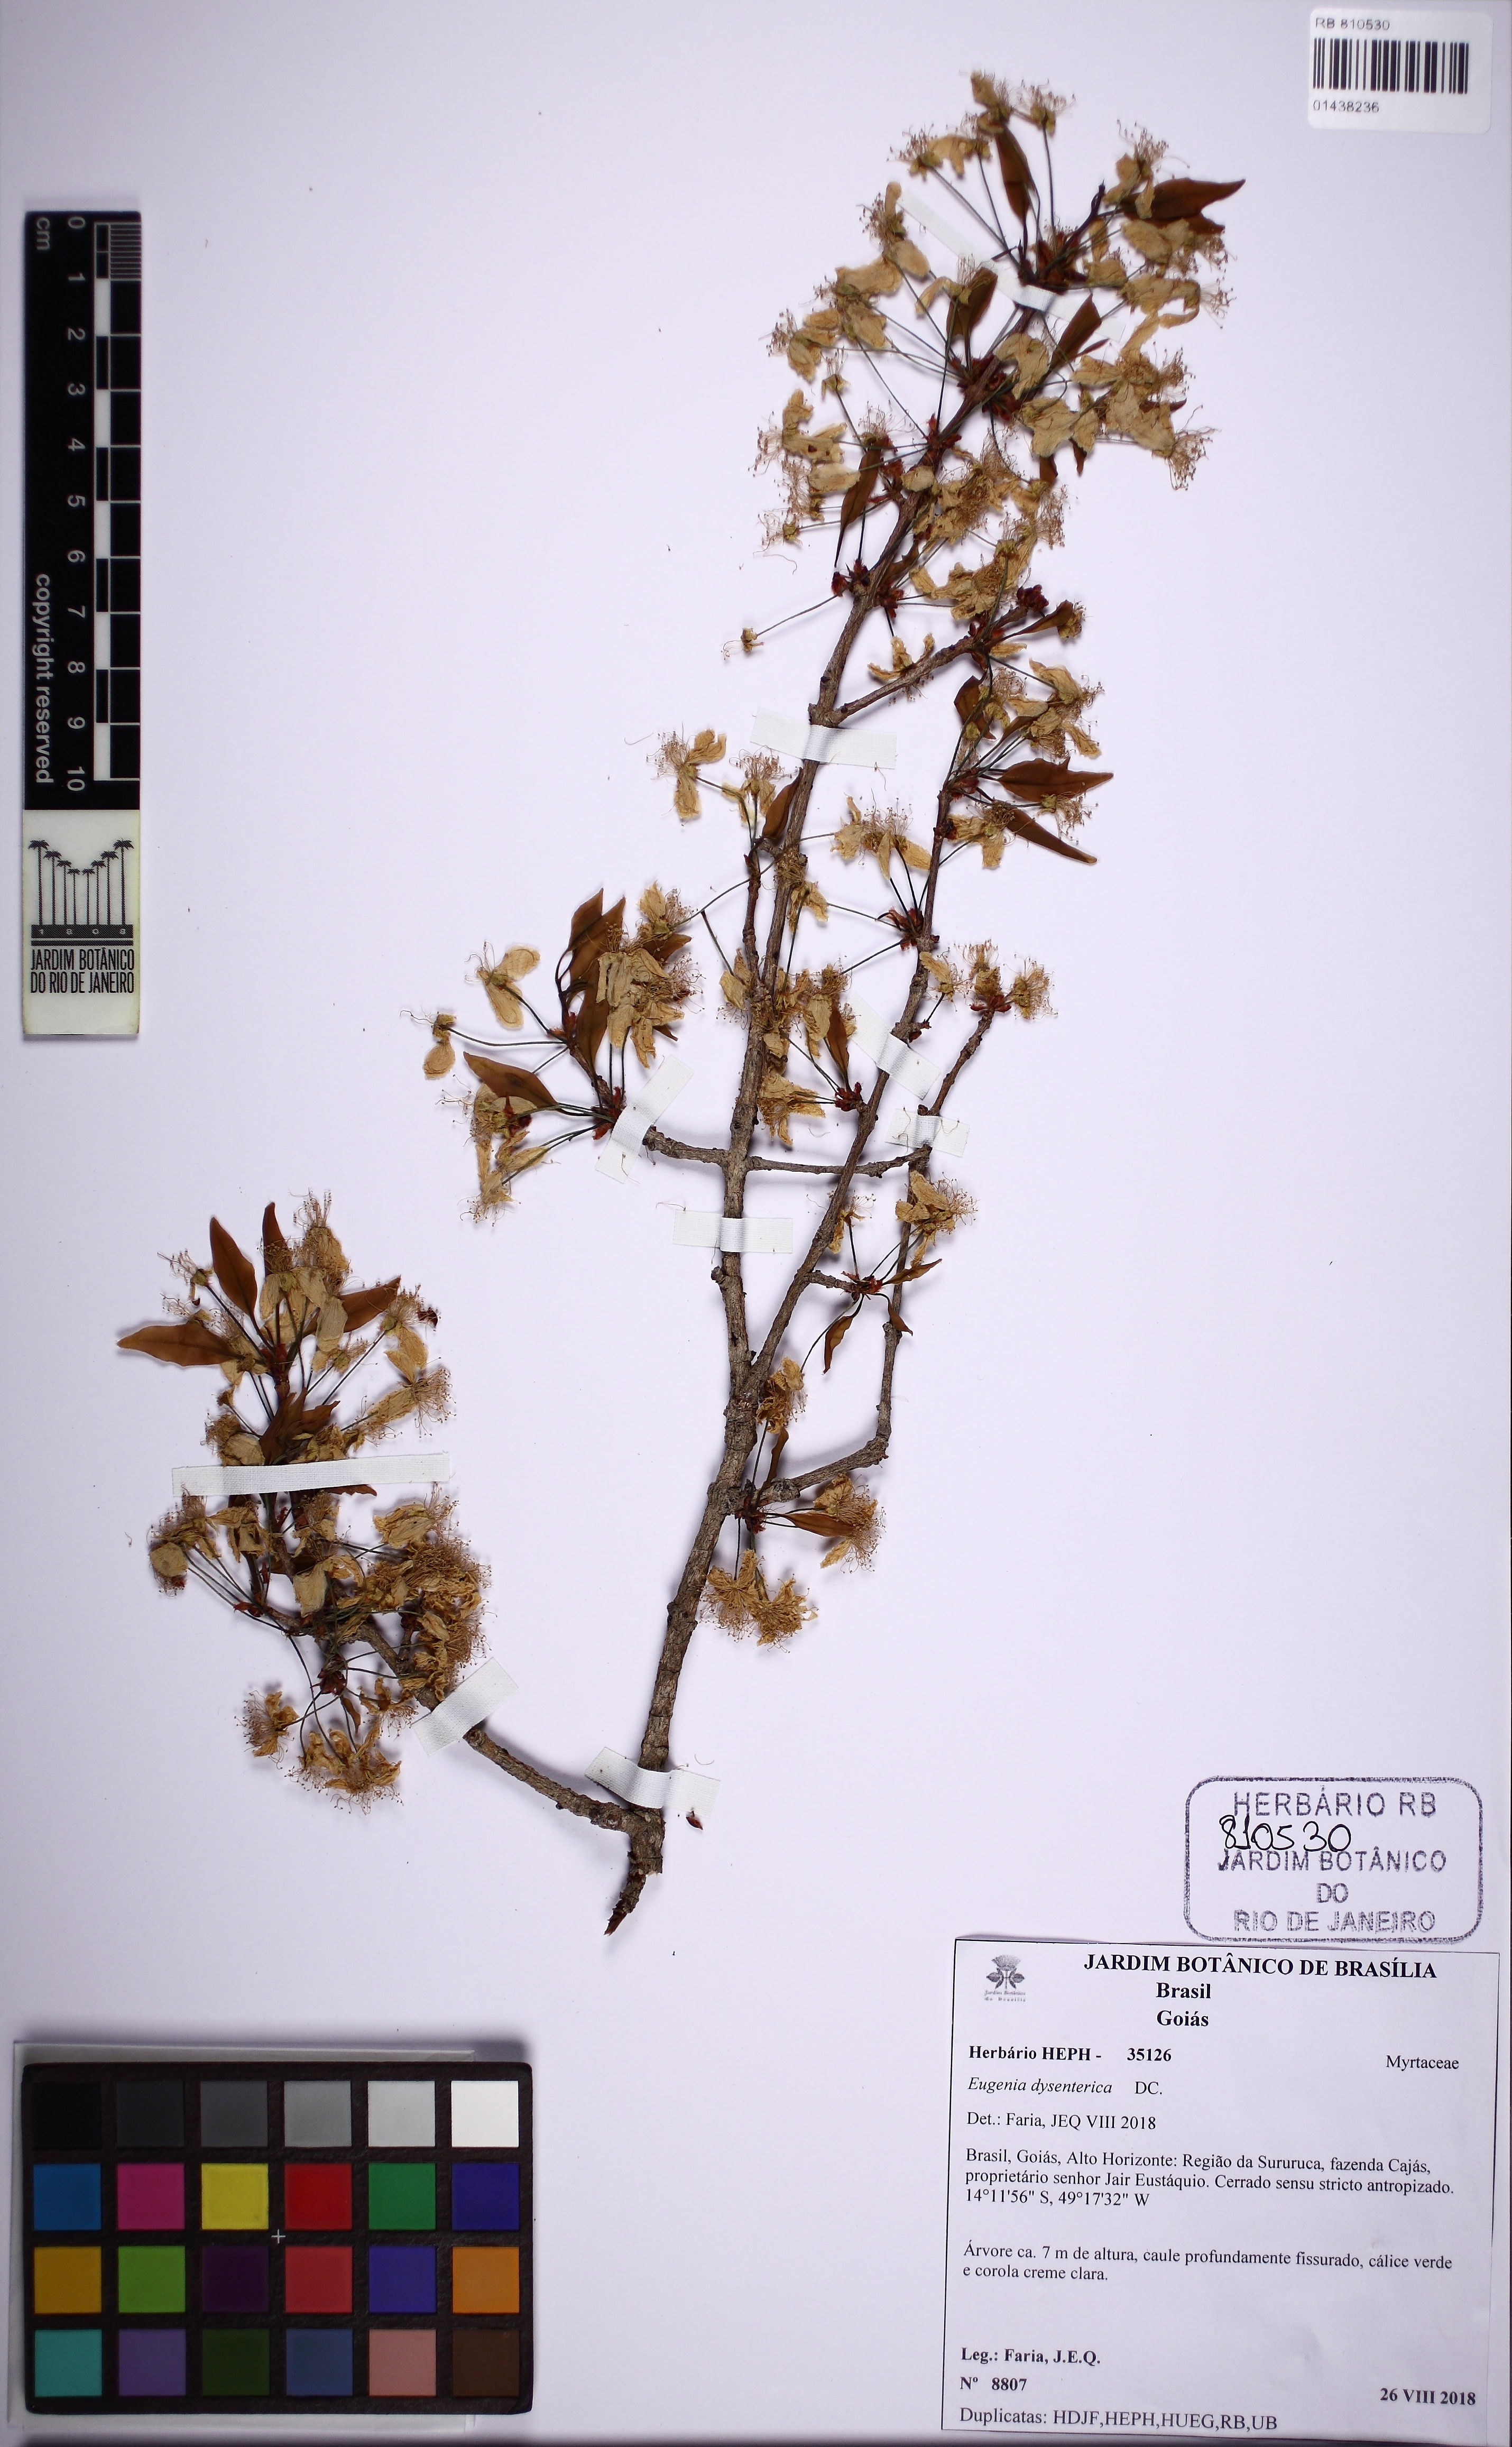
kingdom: Plantae
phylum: Tracheophyta
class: Magnoliopsida
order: Myrtales
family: Myrtaceae
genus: Eugenia
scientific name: Eugenia dysenterica
